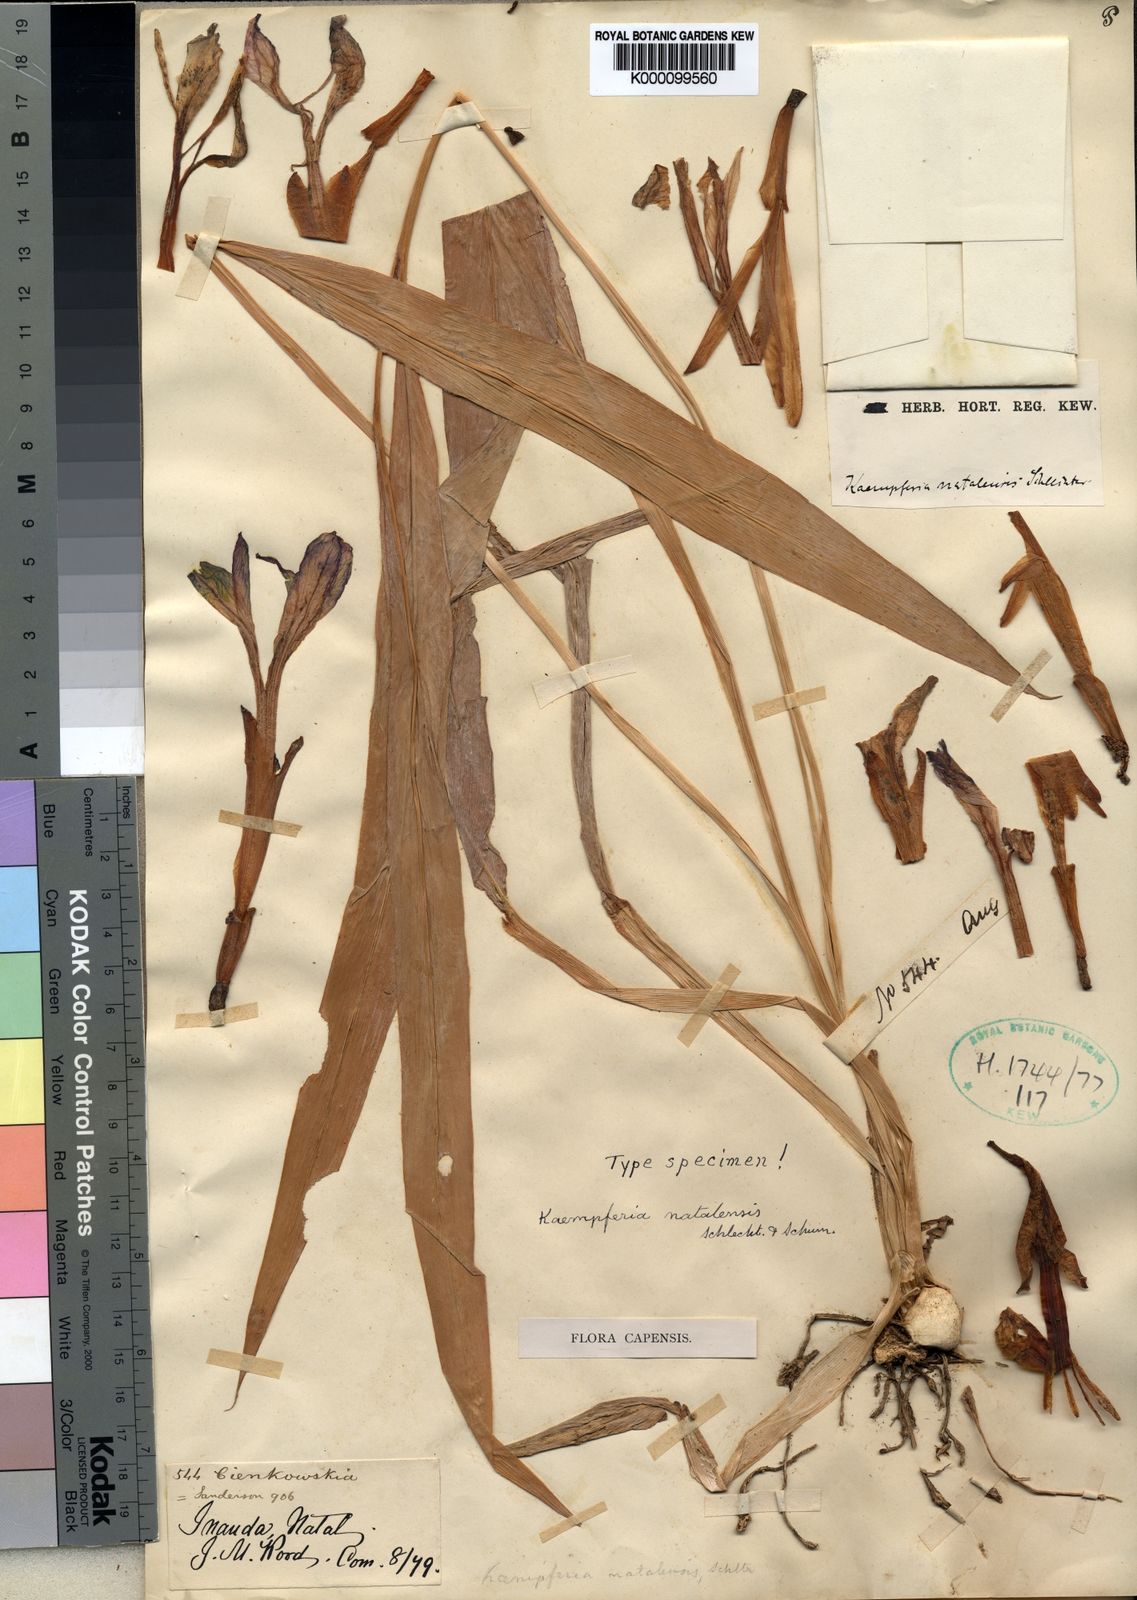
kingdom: Plantae
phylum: Tracheophyta
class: Liliopsida
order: Zingiberales
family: Zingiberaceae
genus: Siphonochilus
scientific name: Siphonochilus aethiopicus
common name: African-ginger
